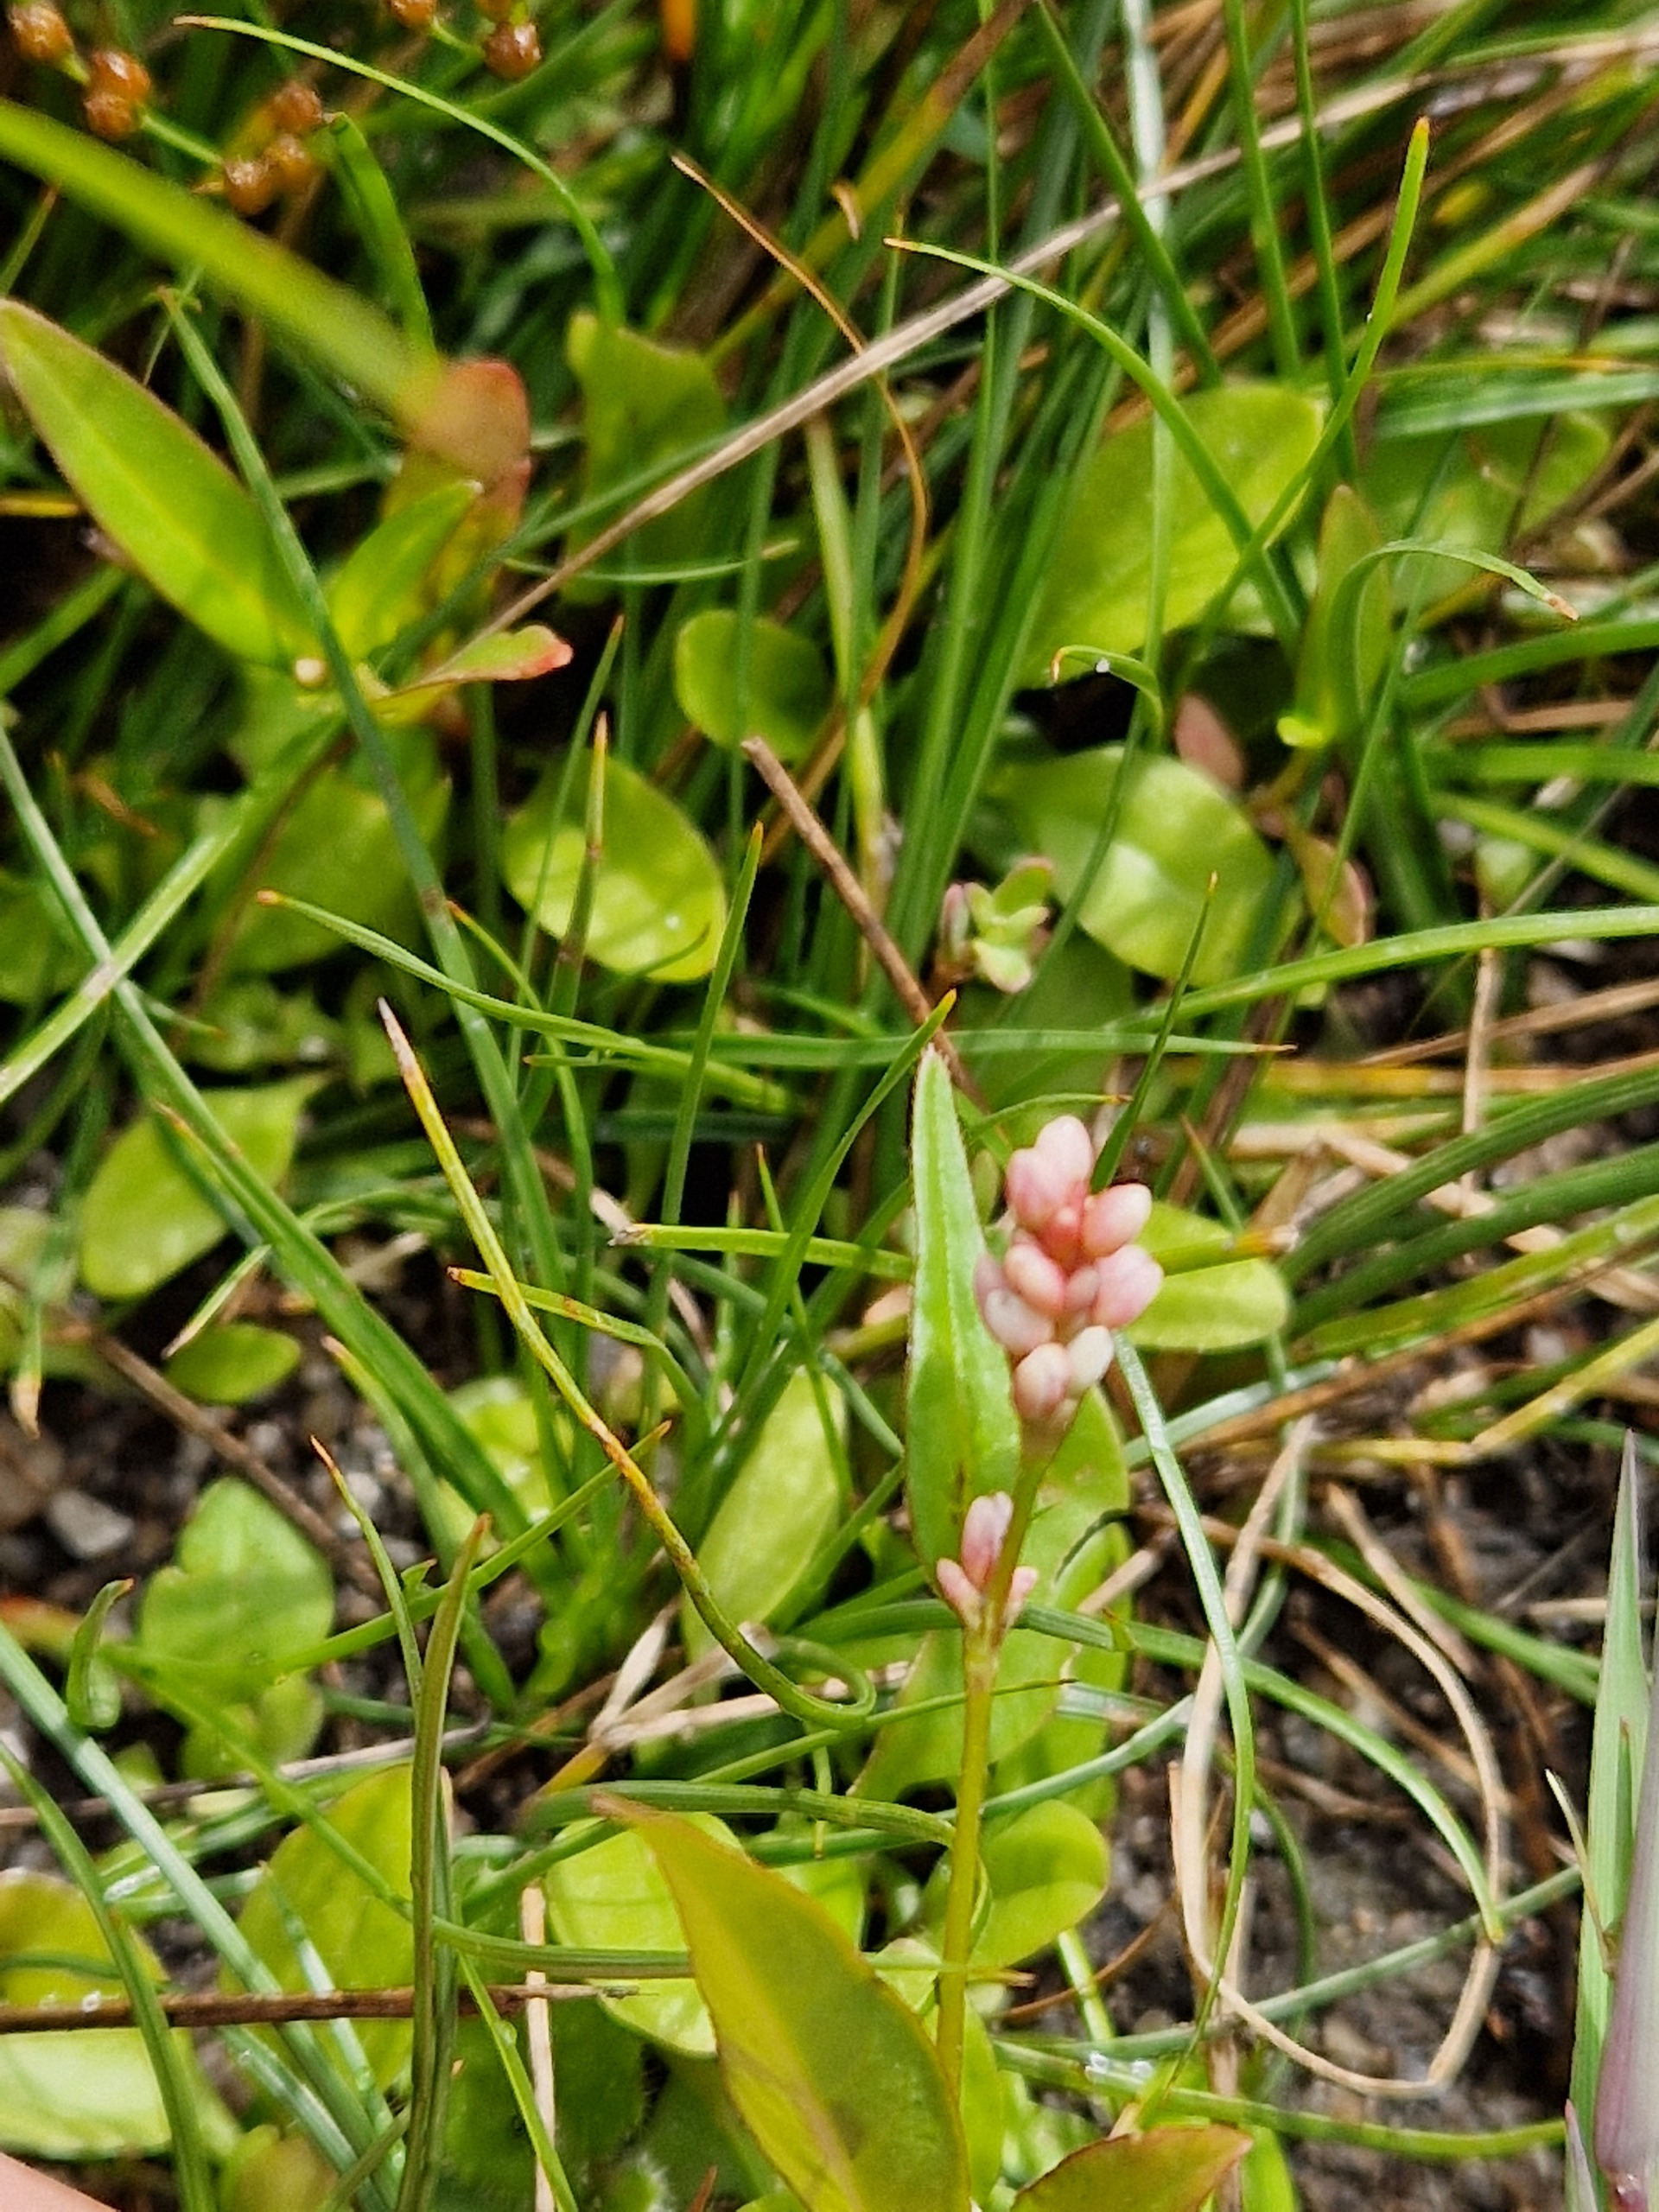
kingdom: Plantae
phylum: Tracheophyta
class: Magnoliopsida
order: Caryophyllales
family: Polygonaceae
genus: Persicaria
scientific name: Persicaria maculosa
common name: Fersken-pileurt
